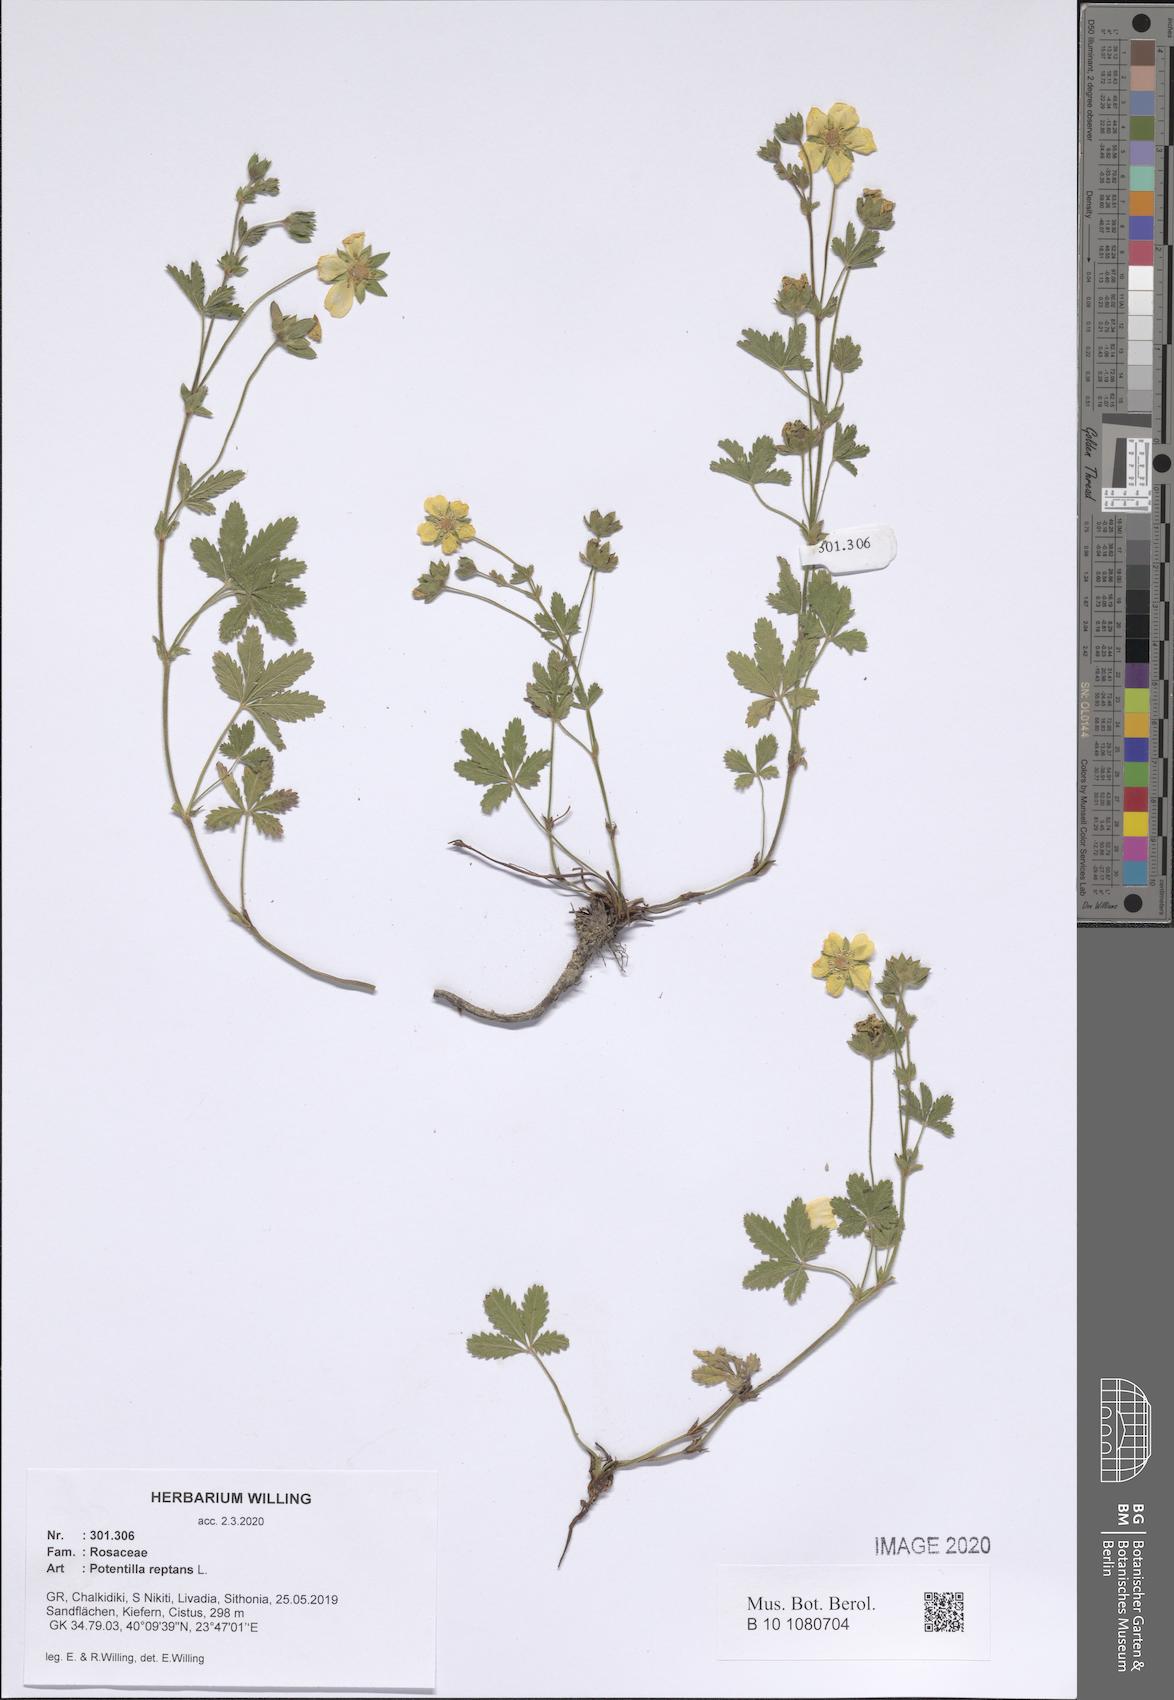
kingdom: Plantae
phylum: Tracheophyta
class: Magnoliopsida
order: Rosales
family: Rosaceae
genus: Potentilla
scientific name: Potentilla reptans
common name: Creeping cinquefoil
